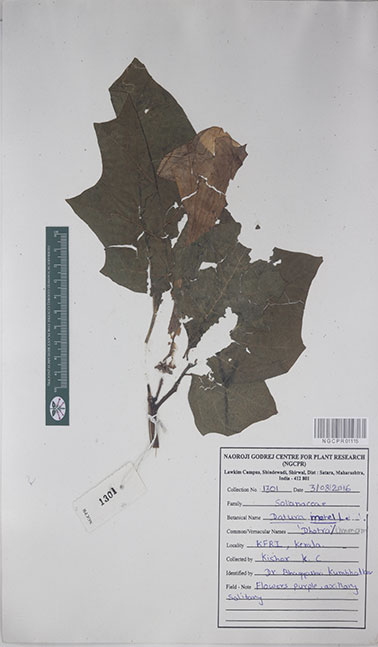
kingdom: Plantae
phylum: Tracheophyta
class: Magnoliopsida
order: Solanales
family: Solanaceae
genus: Datura
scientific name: Datura metel
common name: Jimsonweed
